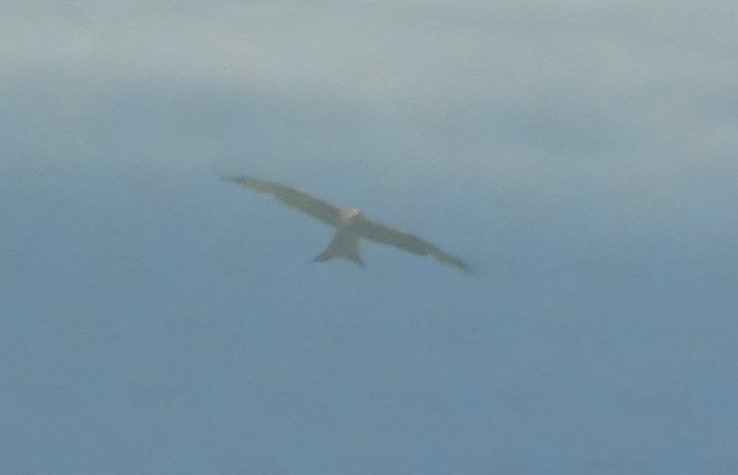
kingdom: Animalia
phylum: Chordata
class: Aves
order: Accipitriformes
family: Accipitridae
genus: Milvus
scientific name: Milvus milvus
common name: Rød glente
